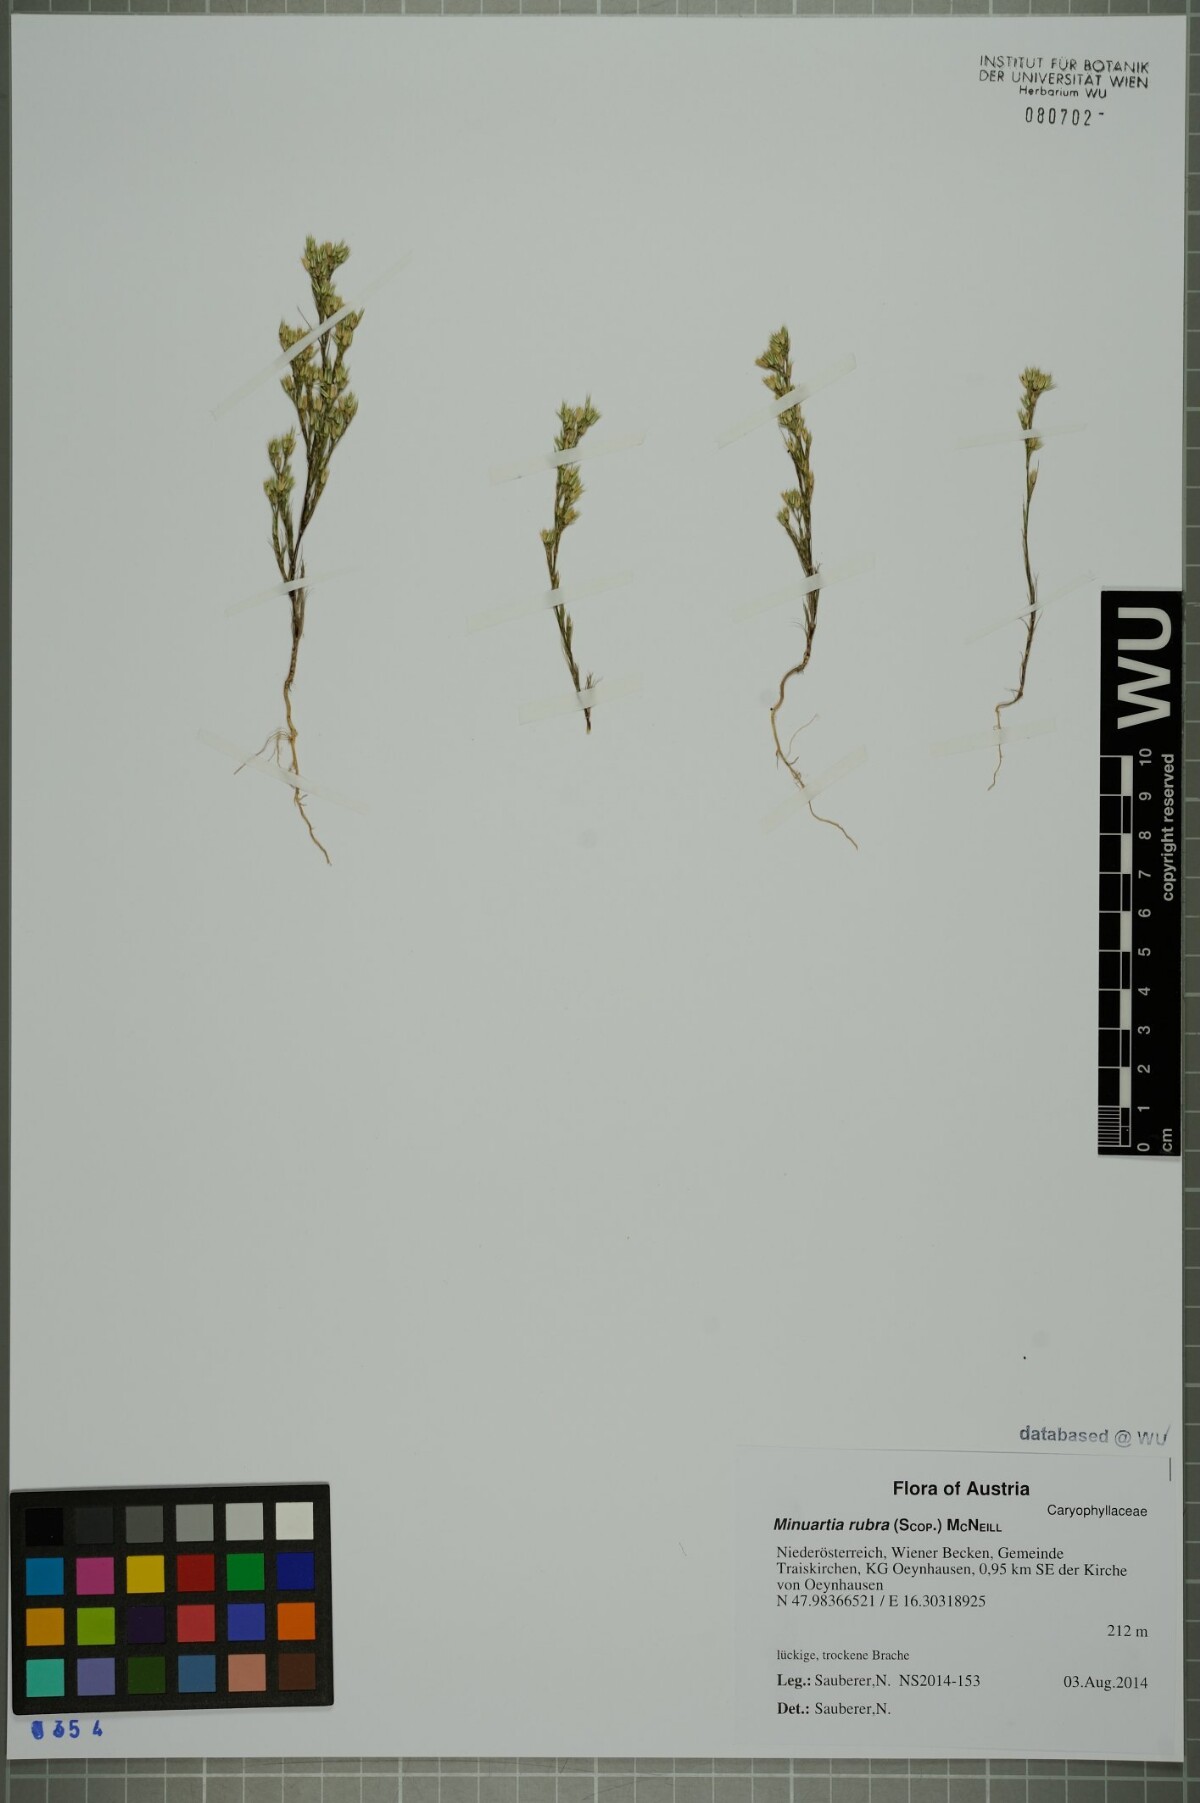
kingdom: Plantae
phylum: Tracheophyta
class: Magnoliopsida
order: Caryophyllales
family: Caryophyllaceae
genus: Minuartia
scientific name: Minuartia mucronata
